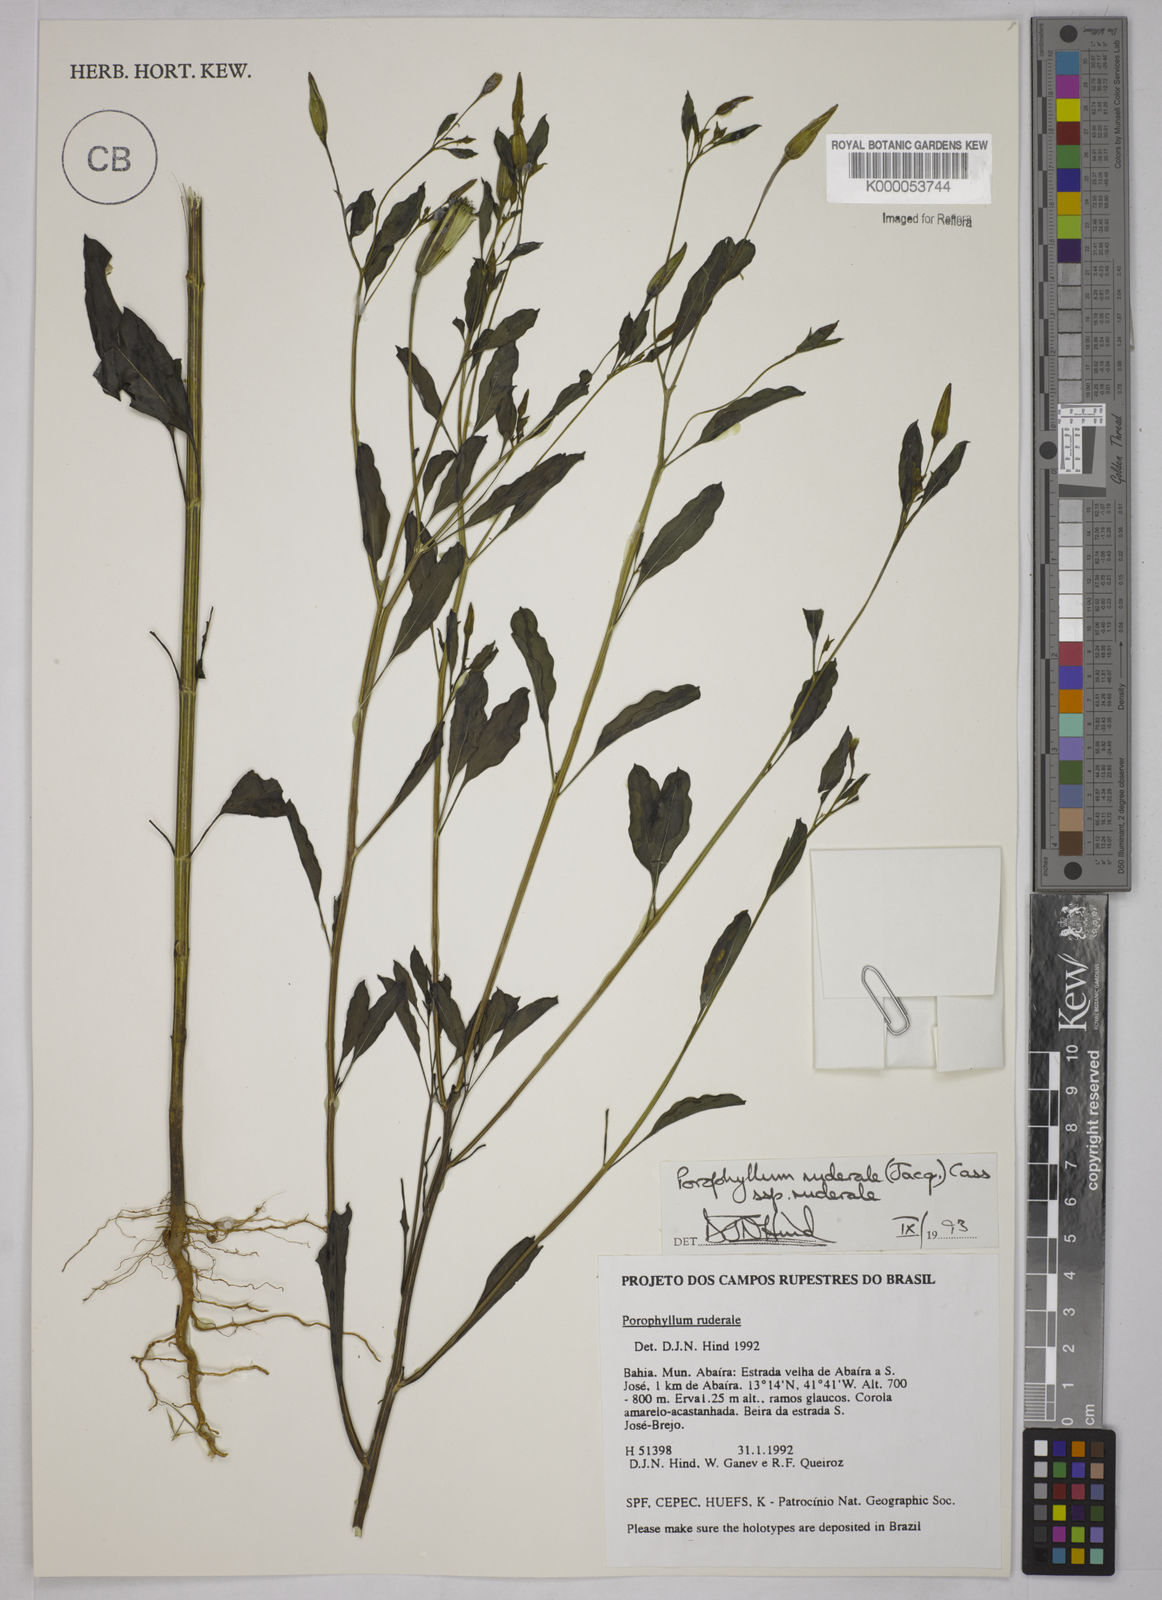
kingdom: Plantae
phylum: Tracheophyta
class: Magnoliopsida
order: Asterales
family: Asteraceae
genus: Porophyllum
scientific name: Porophyllum ruderale
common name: Yerba porosa
